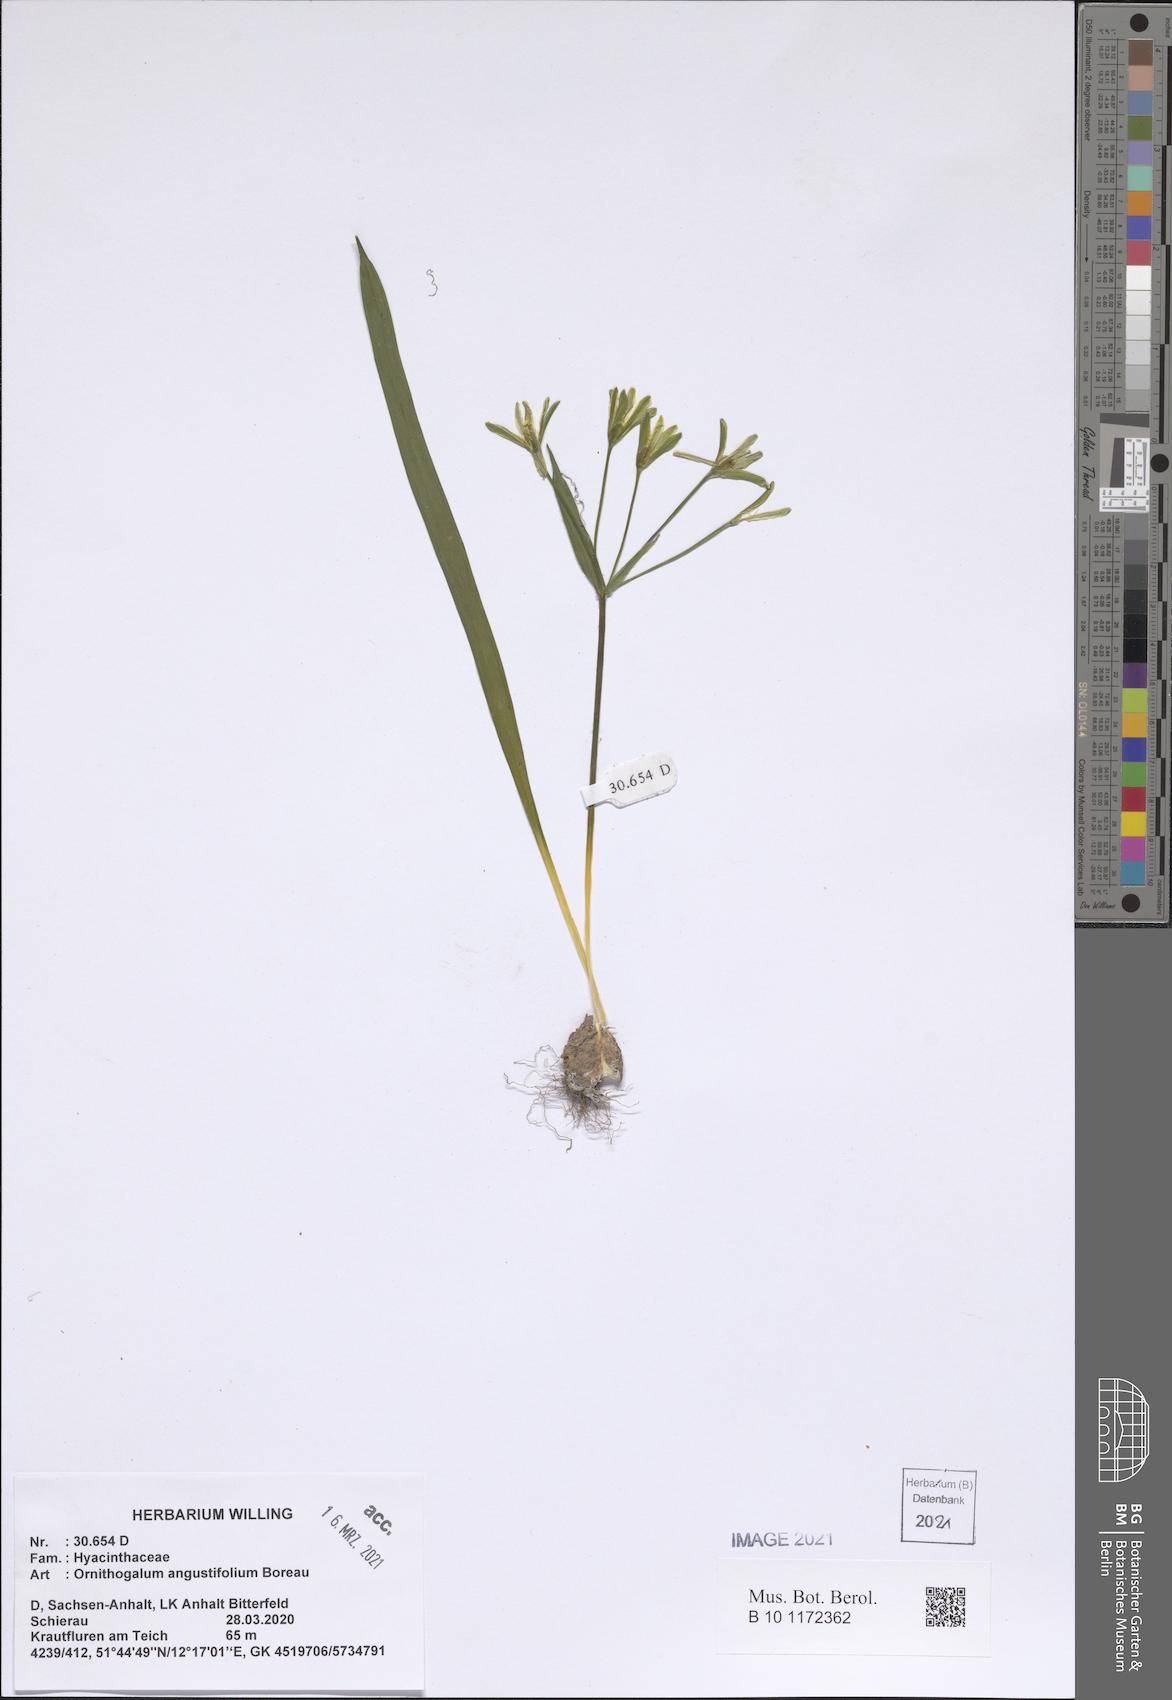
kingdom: Plantae
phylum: Tracheophyta
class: Liliopsida
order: Liliales
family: Liliaceae
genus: Gagea
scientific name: Gagea lutea
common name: Yellow star-of-bethlehem
